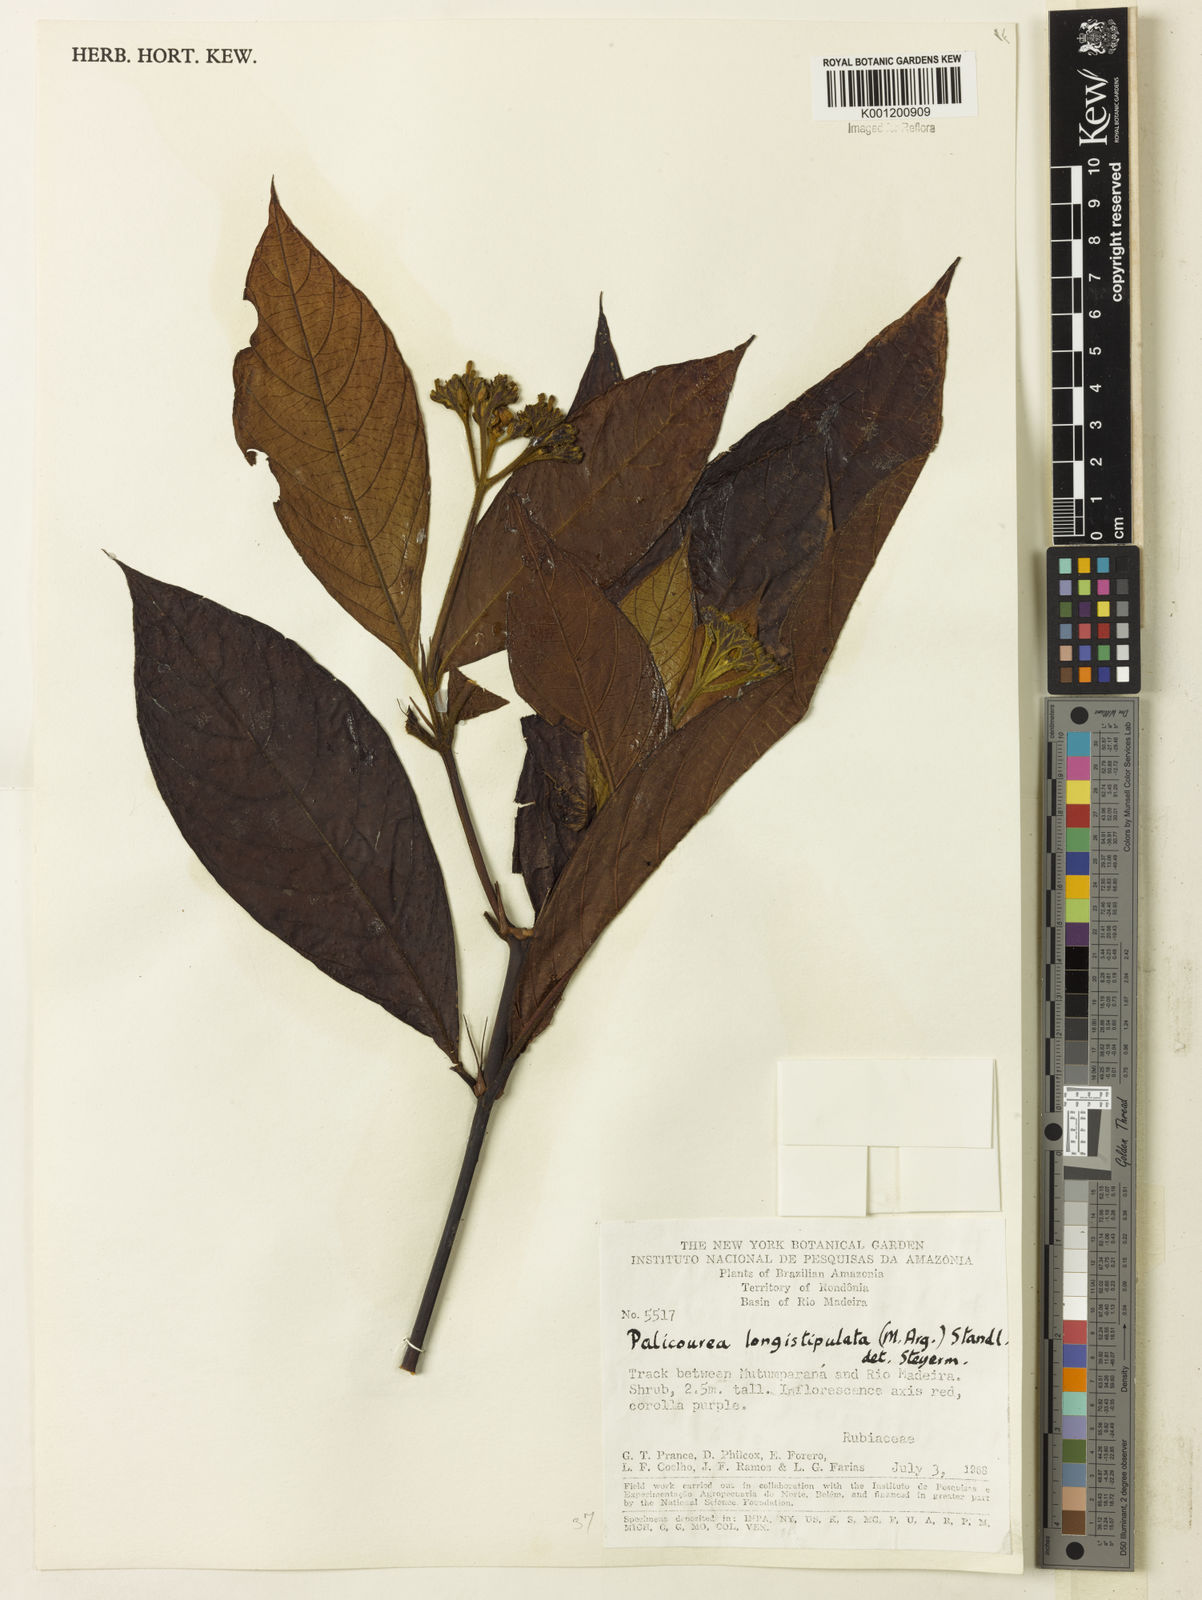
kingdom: Plantae
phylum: Tracheophyta
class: Magnoliopsida
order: Gentianales
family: Rubiaceae
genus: Palicourea
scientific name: Palicourea longistipulata
